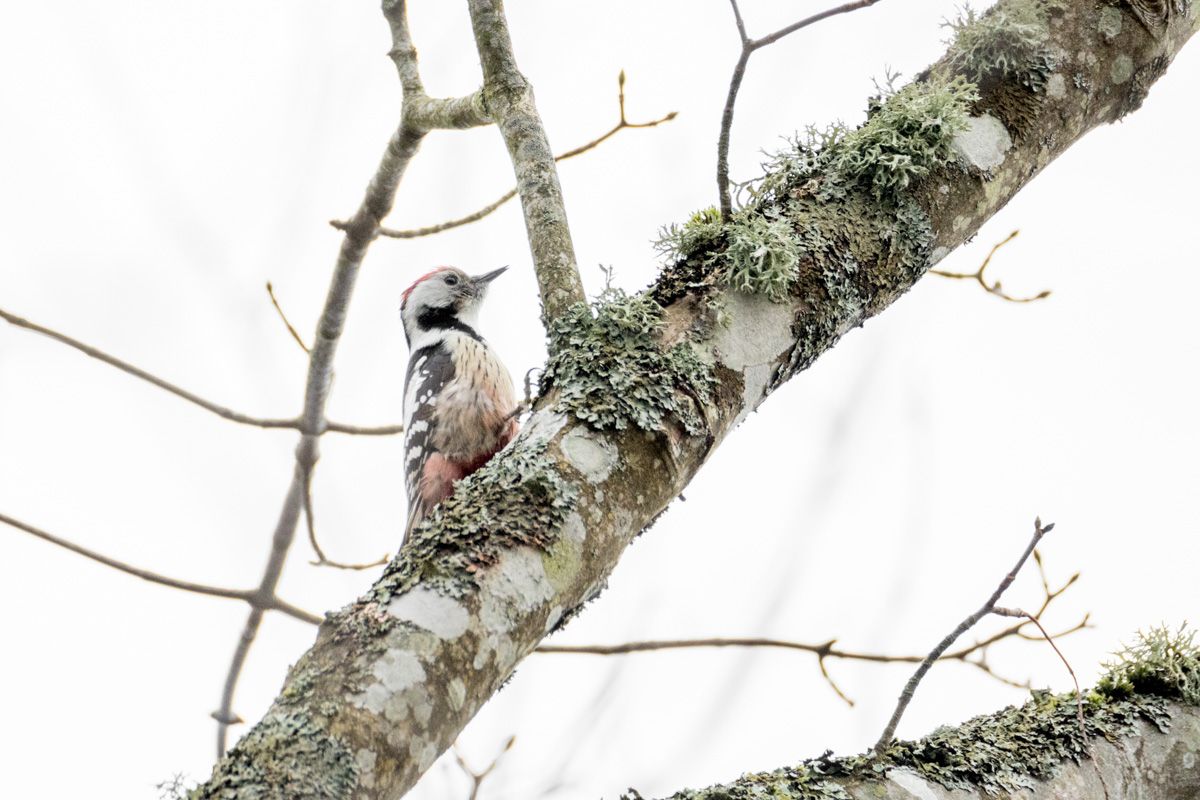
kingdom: Animalia
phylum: Chordata
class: Aves
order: Piciformes
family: Picidae
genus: Dendrocoptes
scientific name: Dendrocoptes medius
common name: Middle spotted woodpecker
